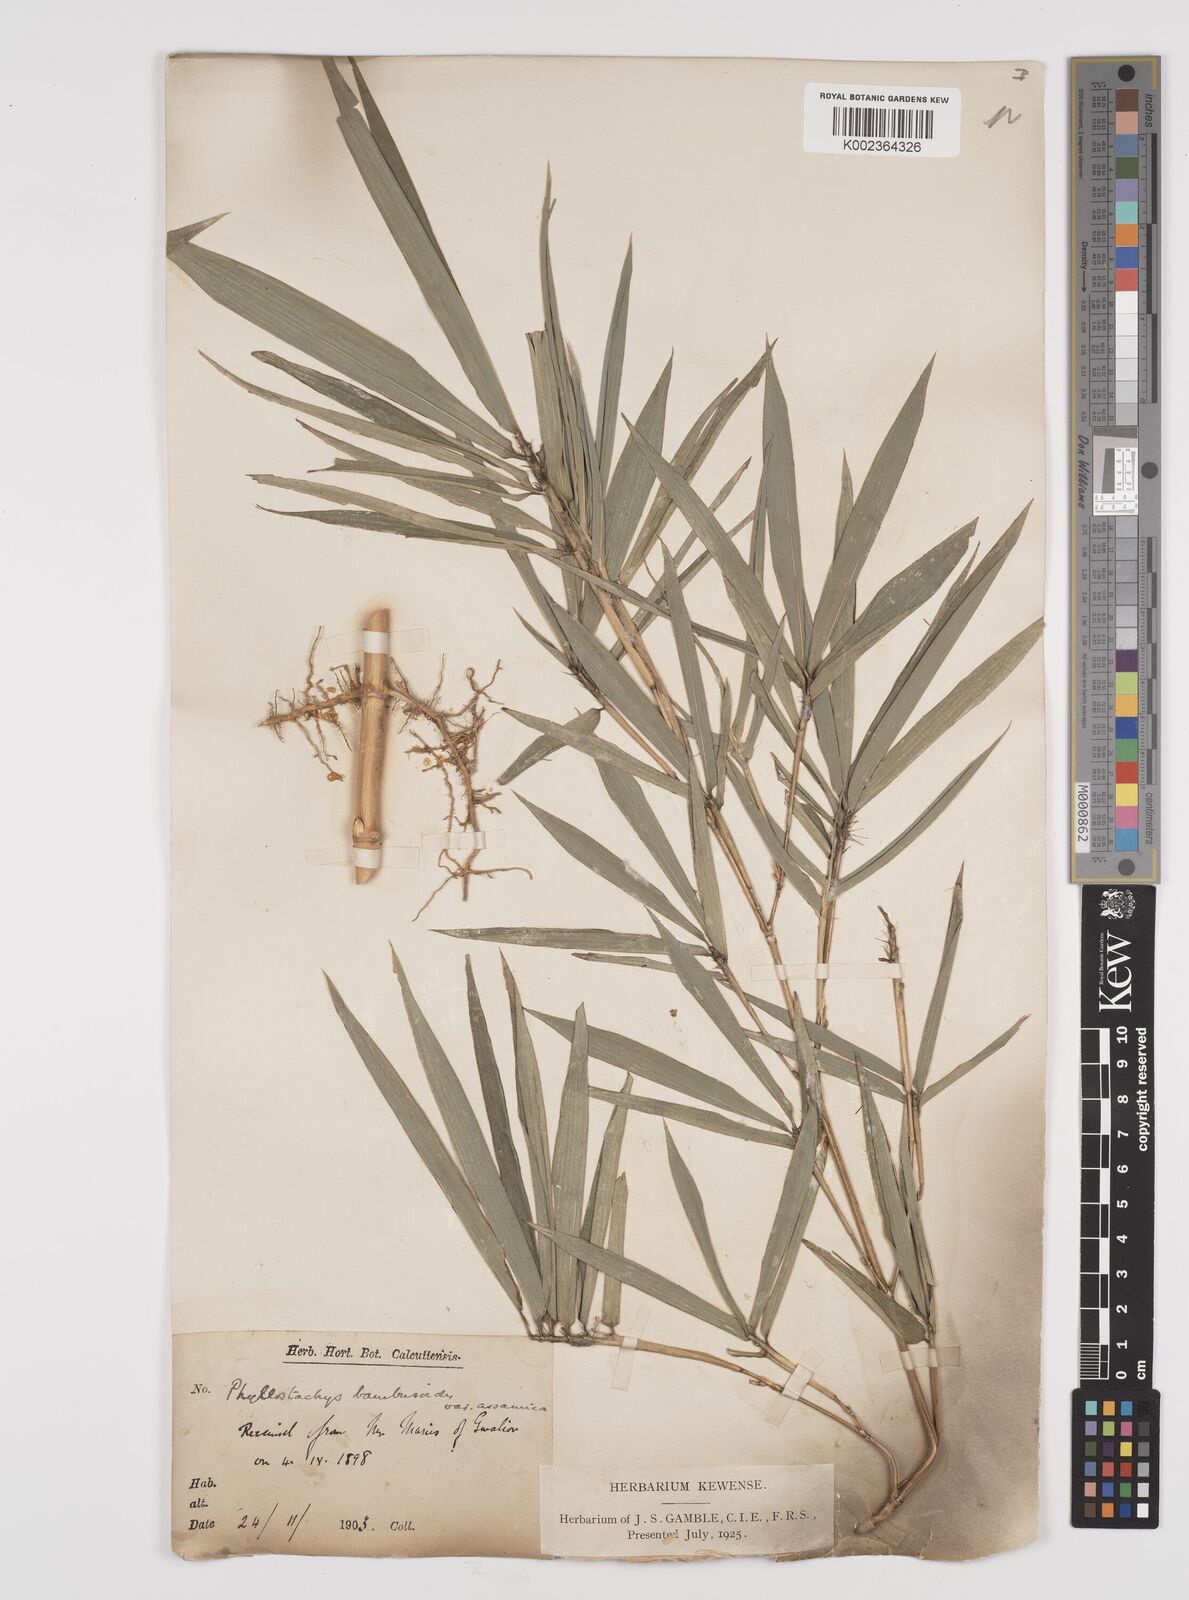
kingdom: Plantae
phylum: Tracheophyta
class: Liliopsida
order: Poales
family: Poaceae
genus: Phyllostachys
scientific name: Phyllostachys reticulata
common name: Bamboo
